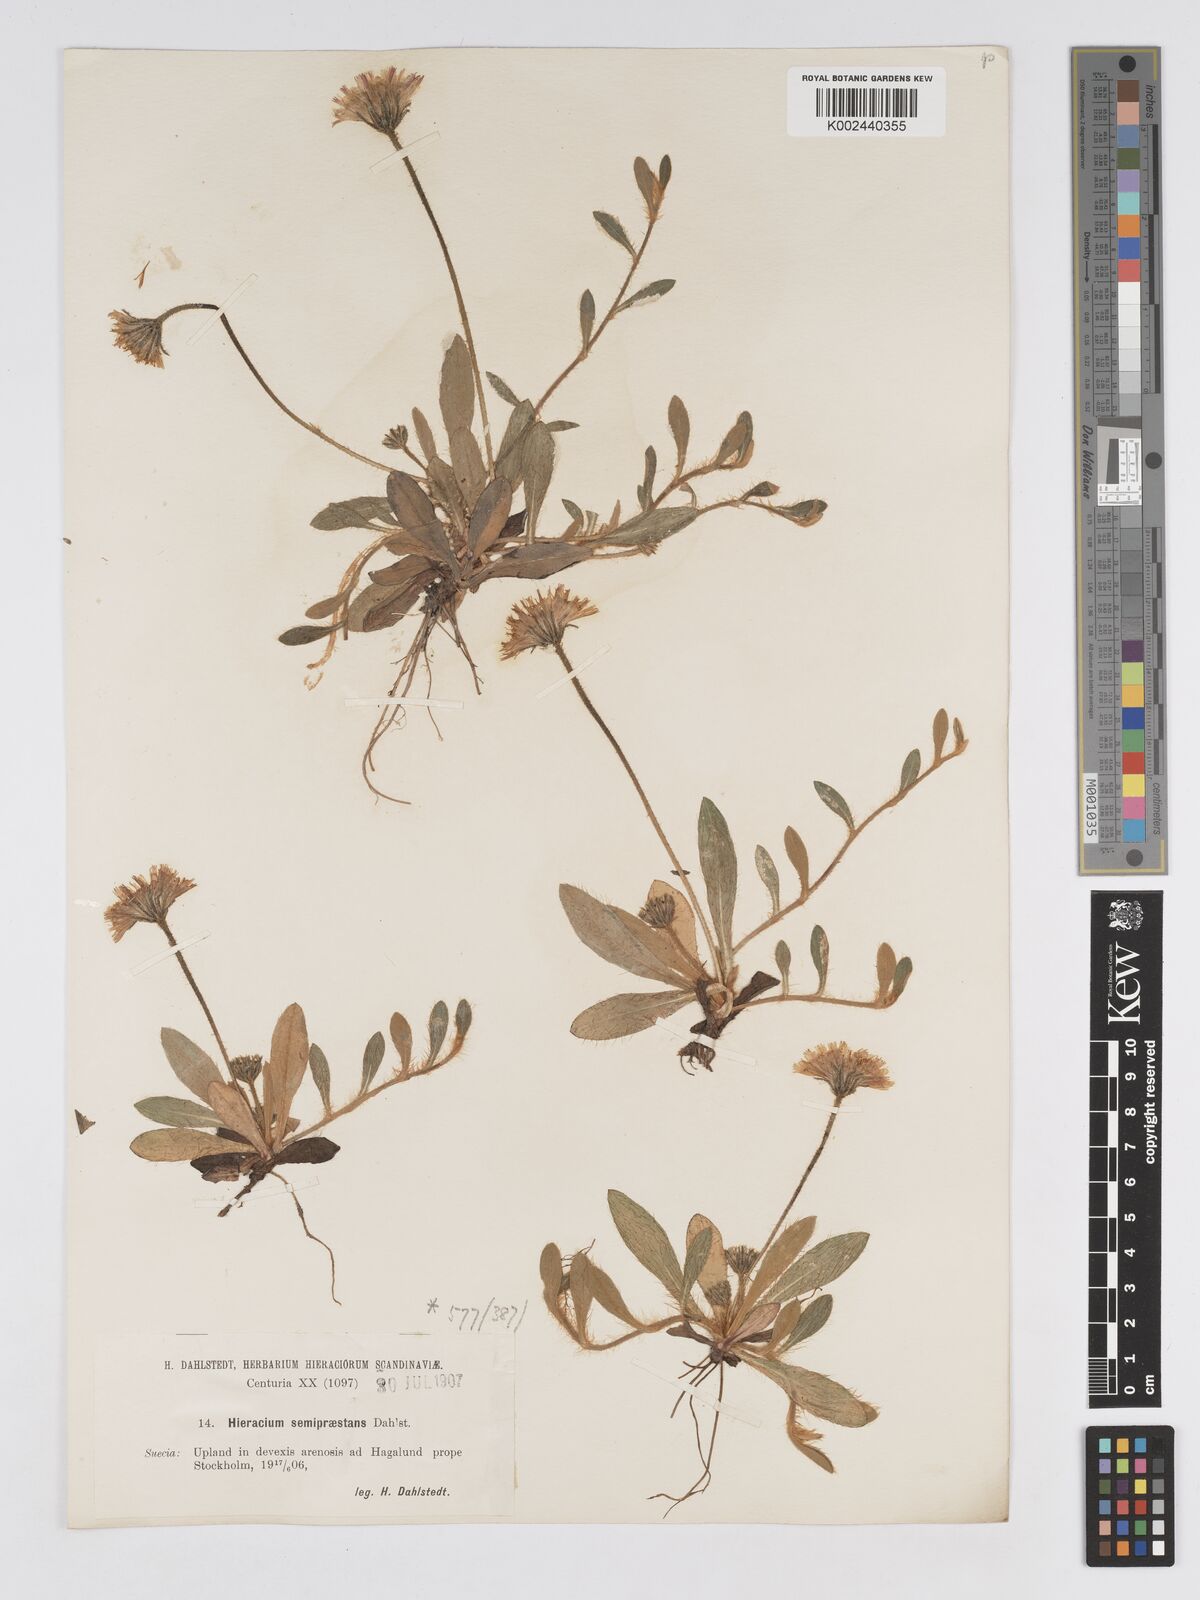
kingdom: Plantae
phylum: Tracheophyta
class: Magnoliopsida
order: Asterales
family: Asteraceae
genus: Pilosella
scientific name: Pilosella officinarum
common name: Mouse-ear hawkweed
